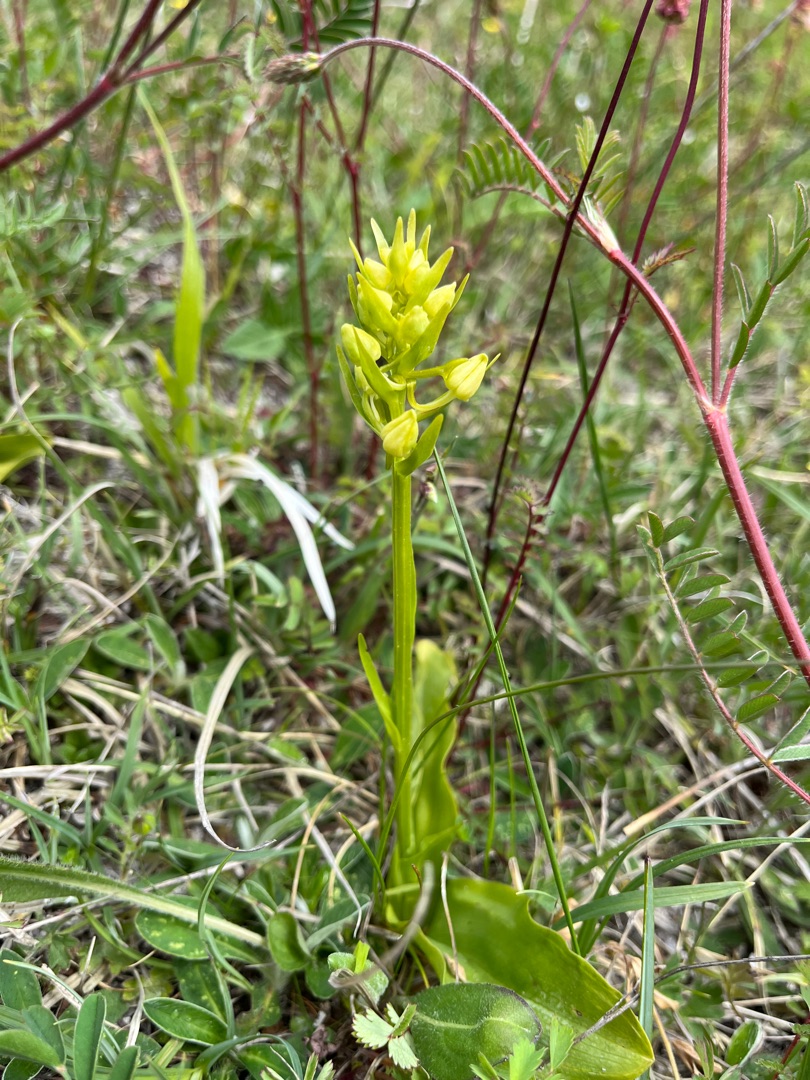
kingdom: Plantae
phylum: Tracheophyta
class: Liliopsida
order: Asparagales
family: Orchidaceae
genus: Platanthera
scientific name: Platanthera chlorantha
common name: Skov-gøgelilje
